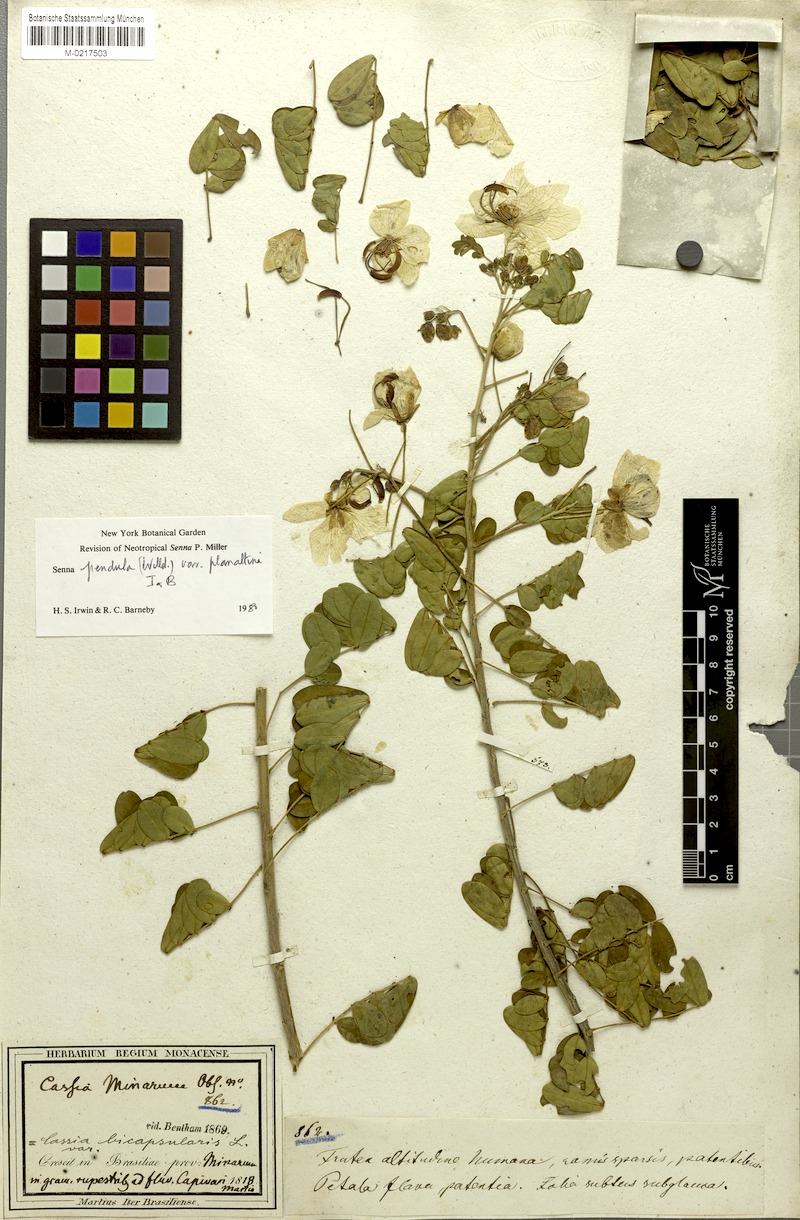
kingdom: Plantae
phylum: Tracheophyta
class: Magnoliopsida
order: Fabales
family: Fabaceae
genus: Senna
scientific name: Senna pendula
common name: Easter cassia
